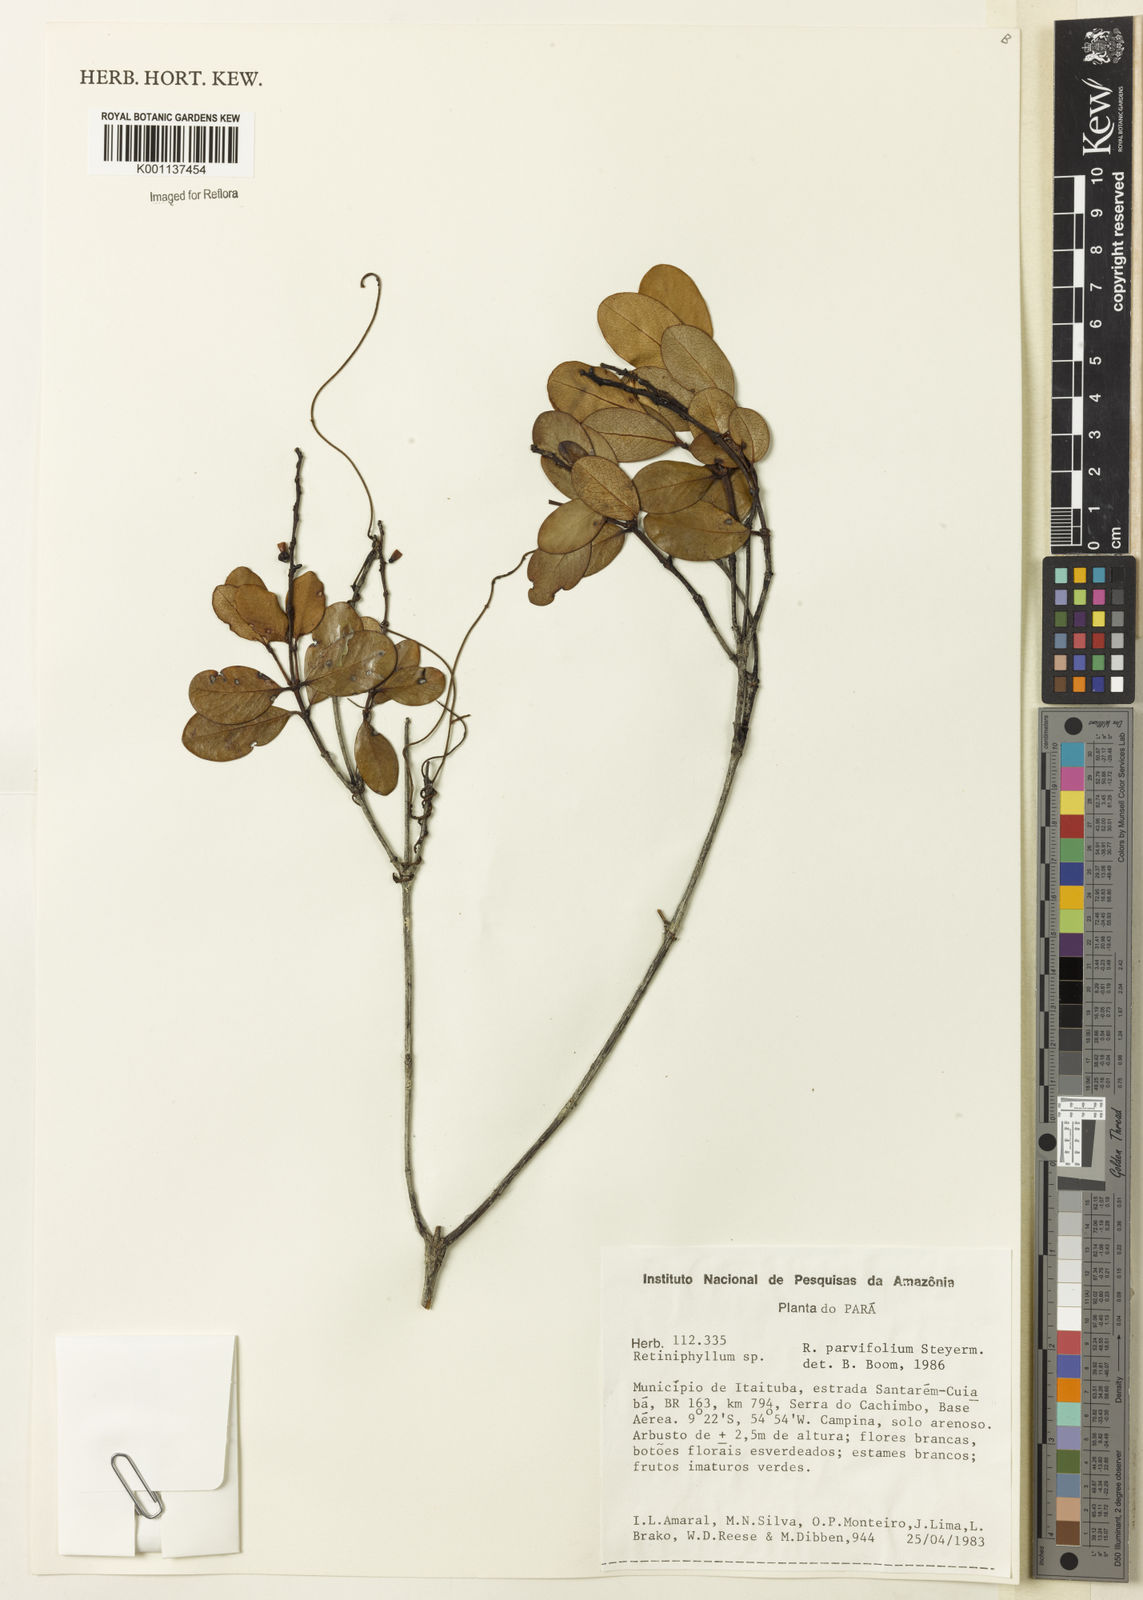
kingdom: Plantae
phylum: Tracheophyta
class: Magnoliopsida
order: Gentianales
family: Rubiaceae
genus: Retiniphyllum
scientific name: Retiniphyllum parvifolium
